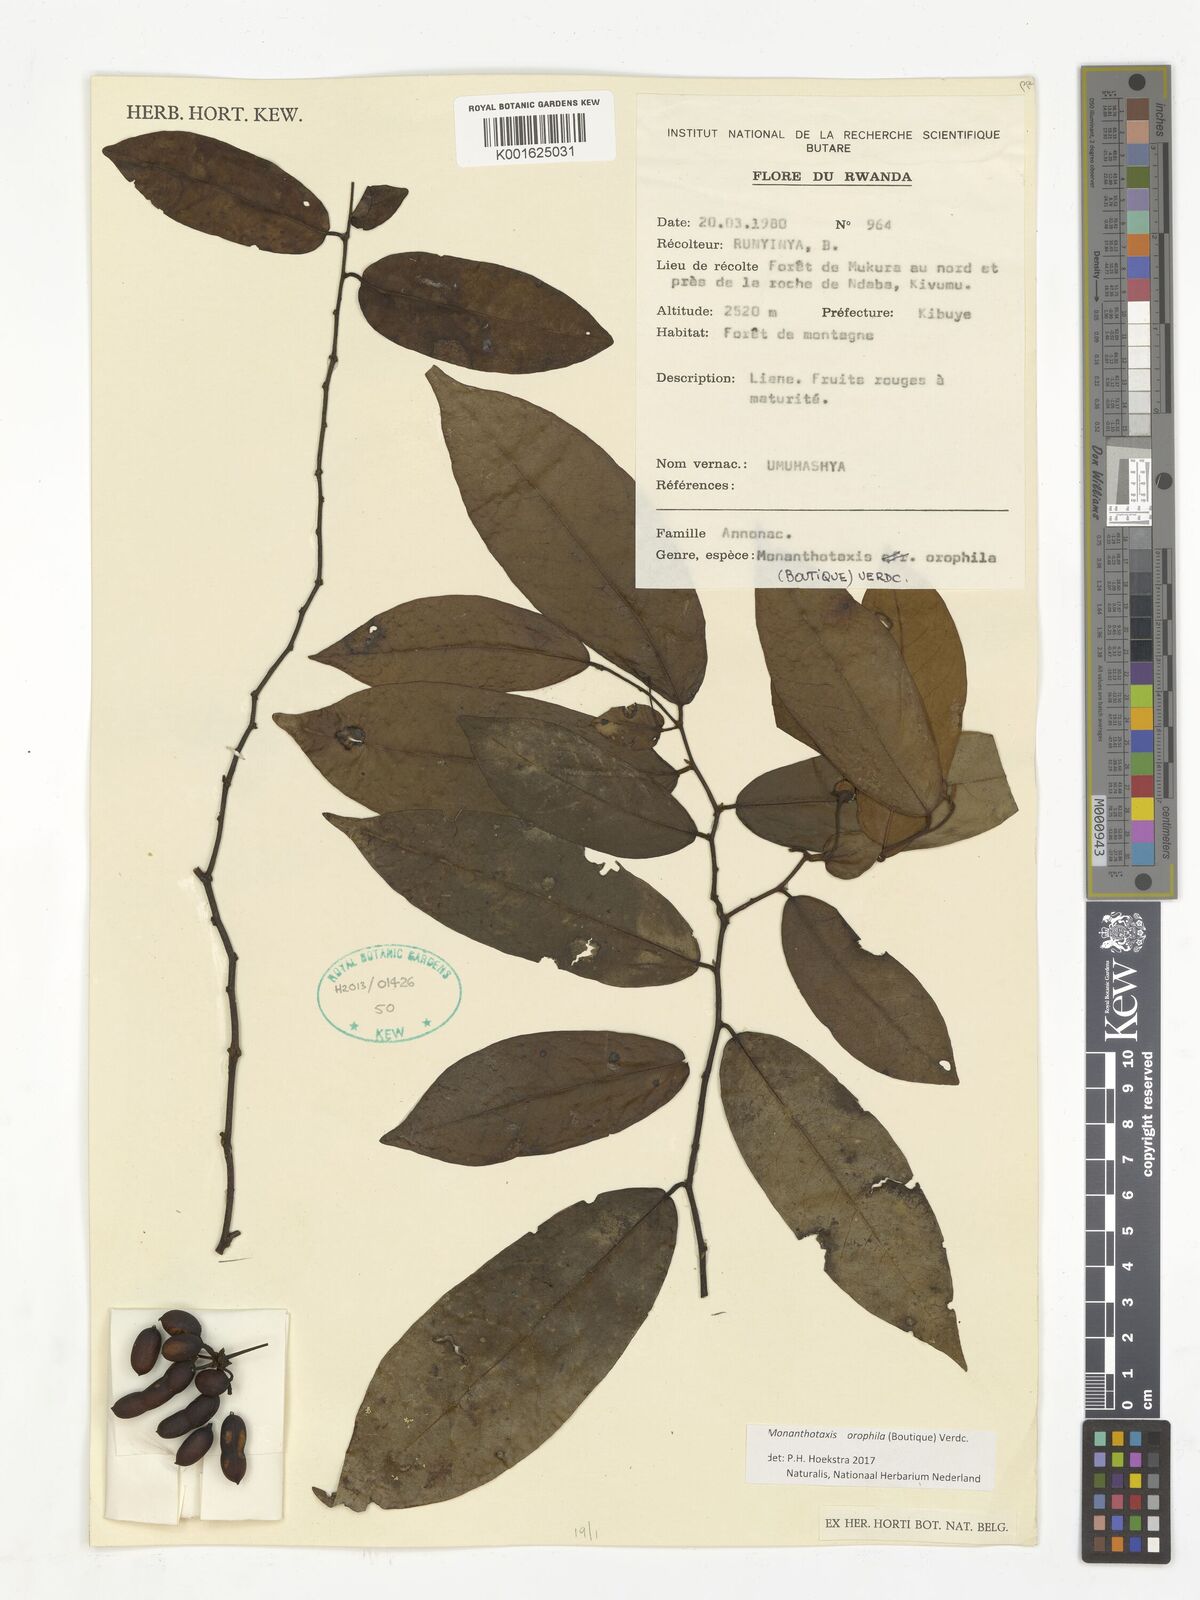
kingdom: Plantae
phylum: Tracheophyta
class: Magnoliopsida
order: Magnoliales
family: Annonaceae
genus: Monanthotaxis
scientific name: Monanthotaxis orophila
